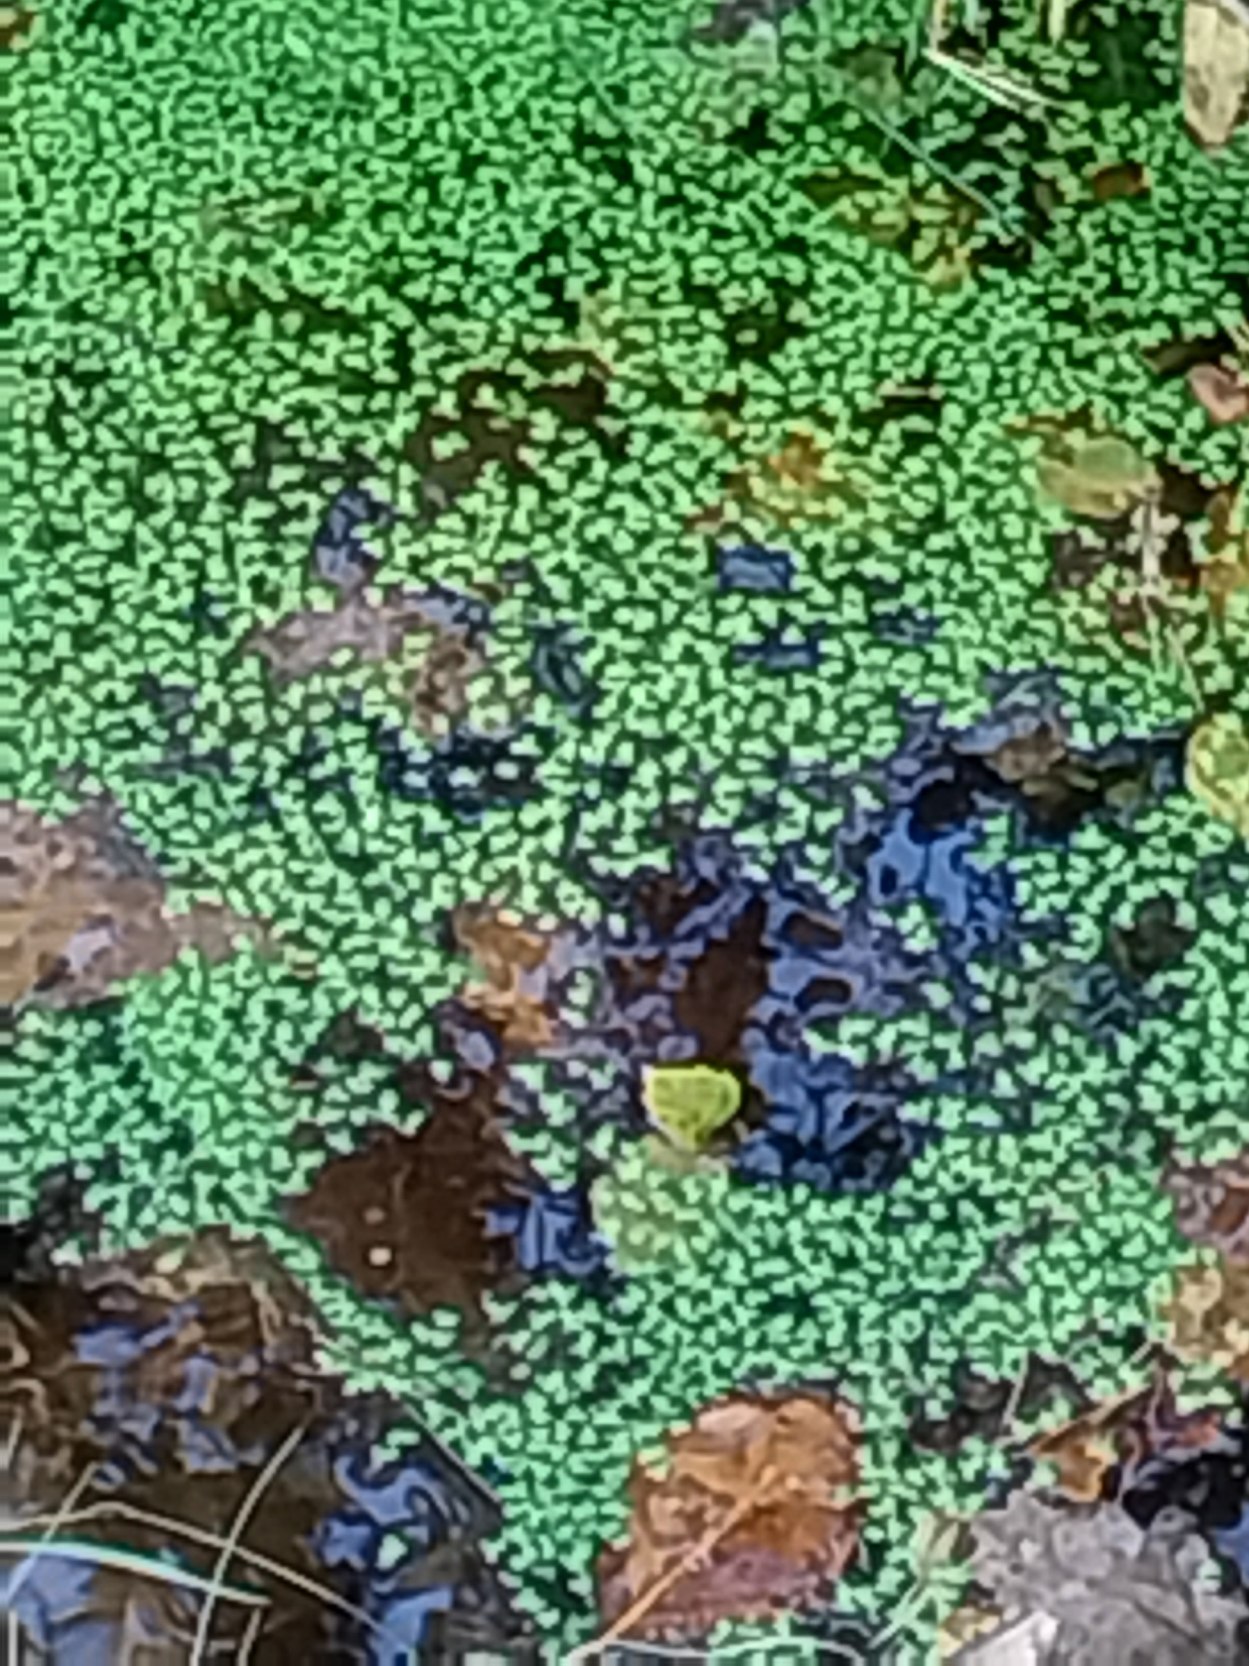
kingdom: Plantae
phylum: Tracheophyta
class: Liliopsida
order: Alismatales
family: Araceae
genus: Lemna
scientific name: Lemna minor
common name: Liden andemad
